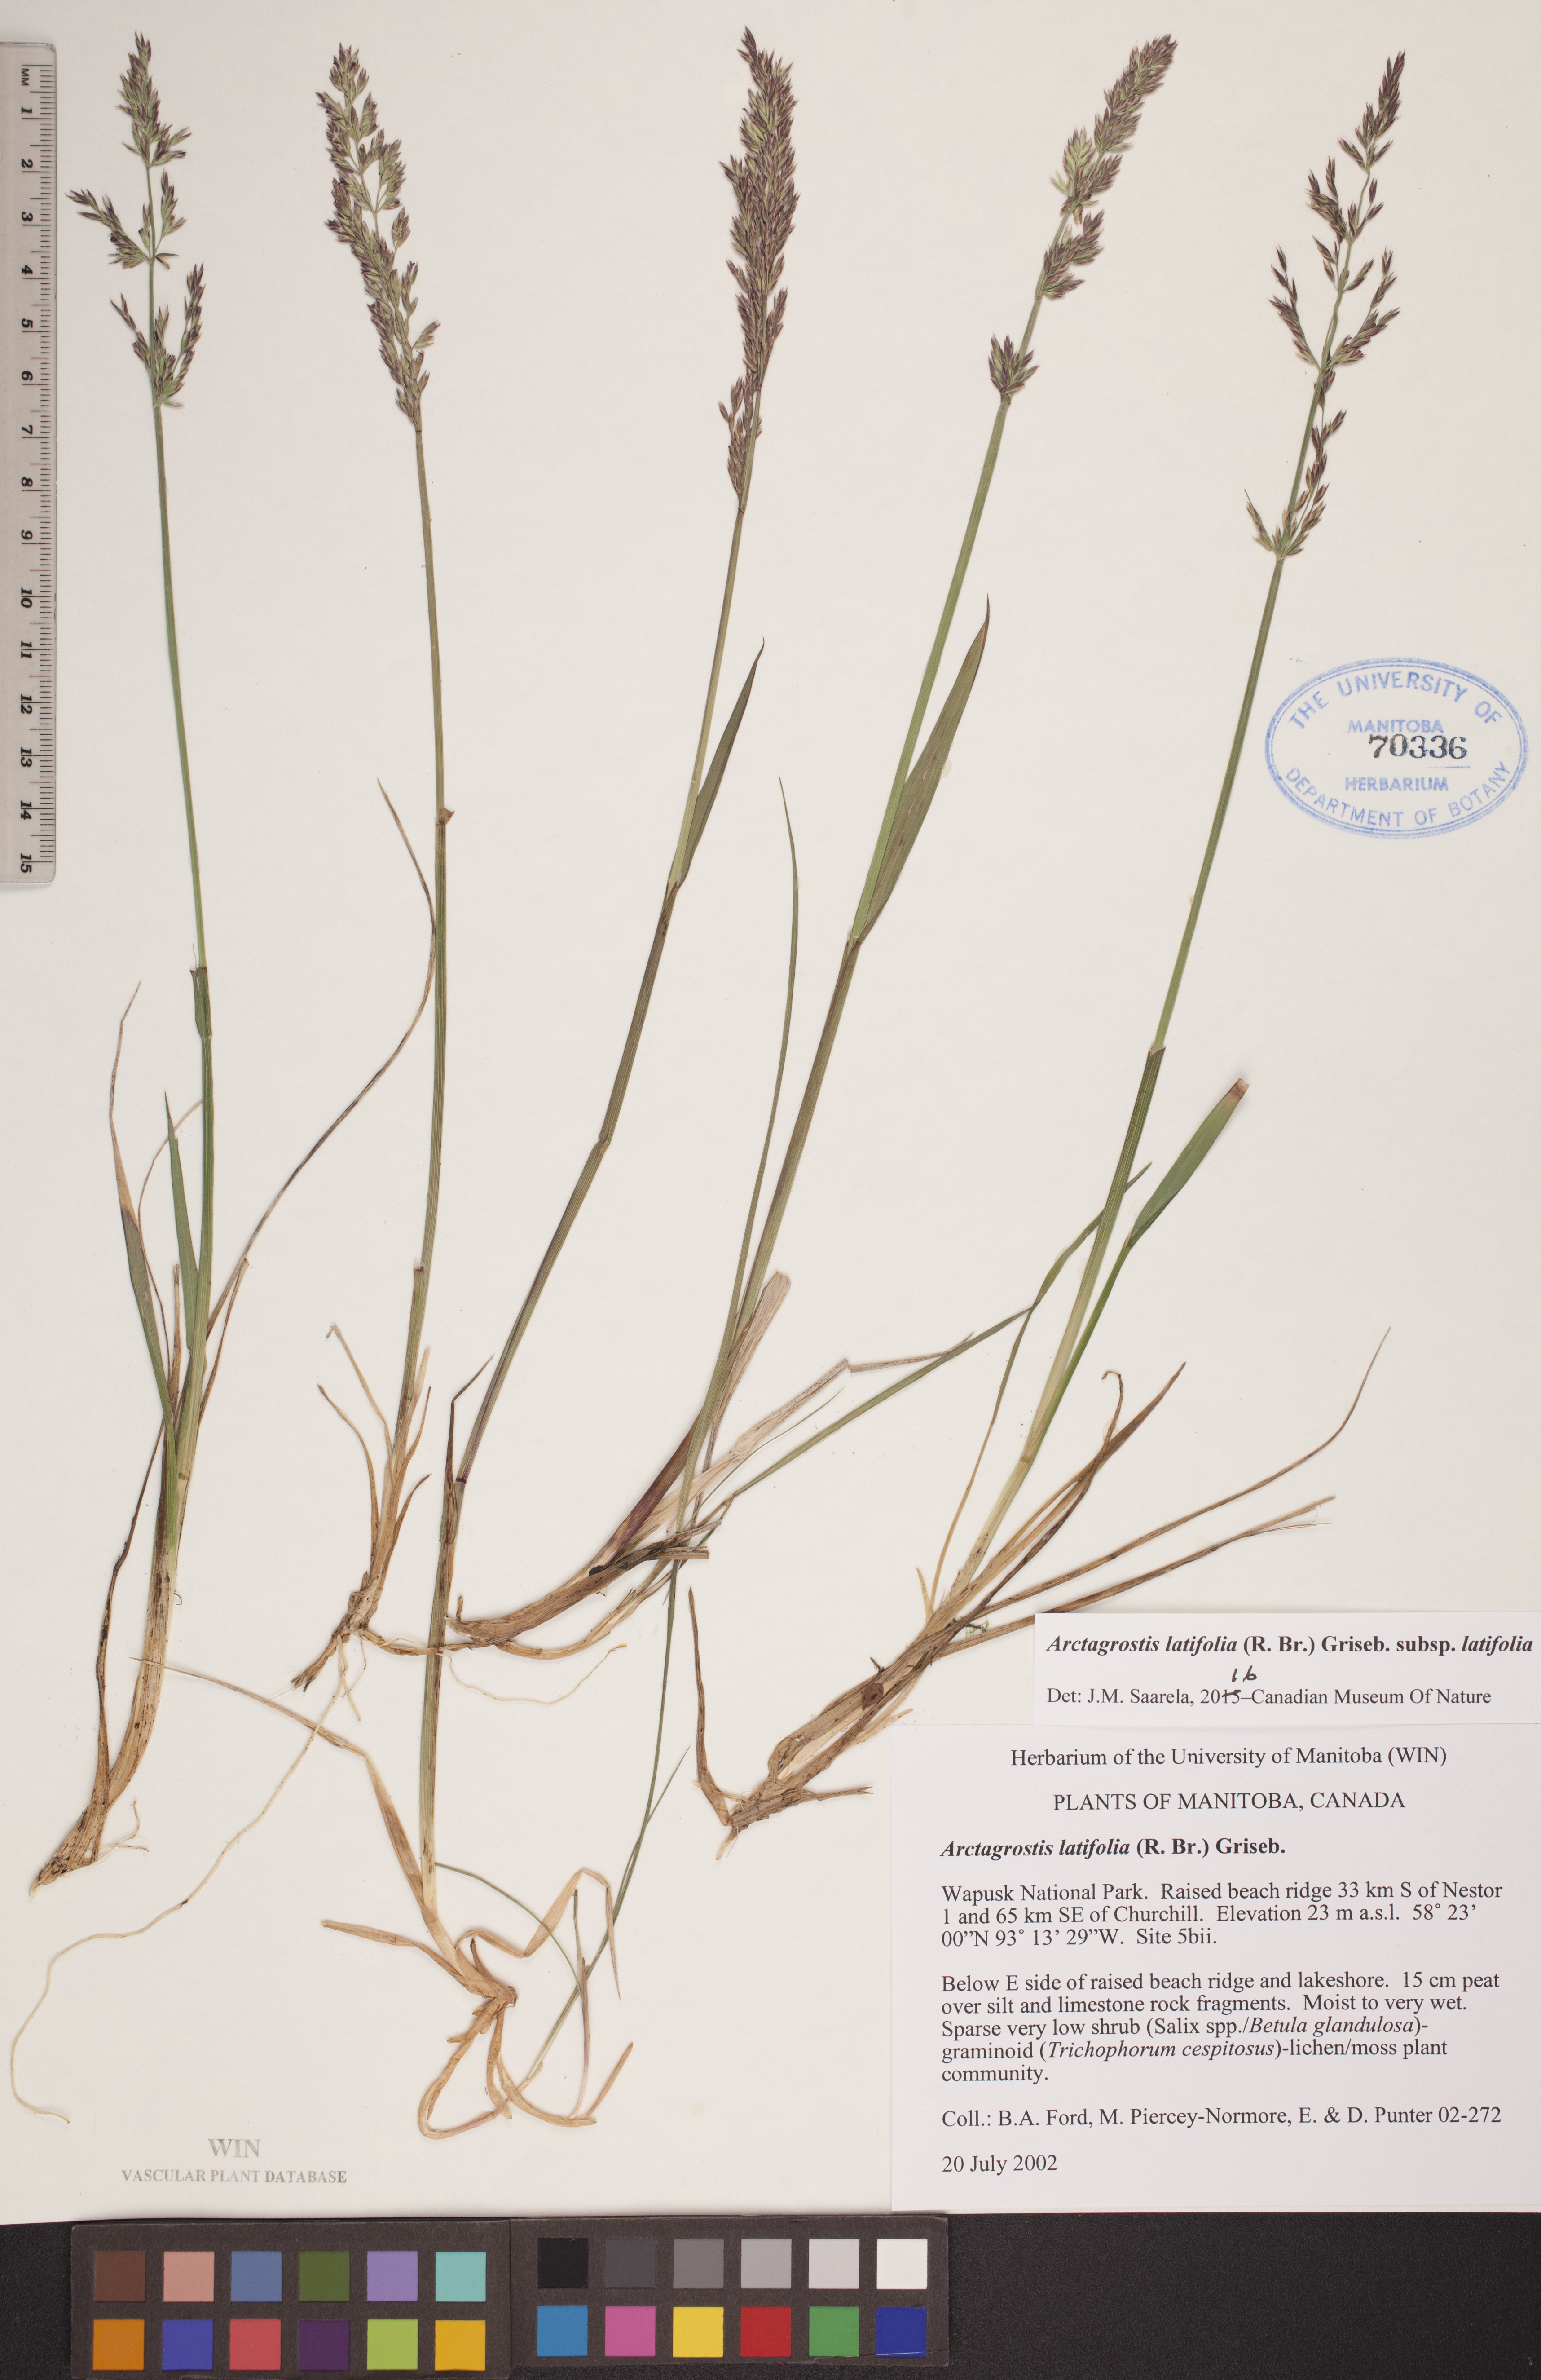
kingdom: Plantae
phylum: Tracheophyta
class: Liliopsida
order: Poales
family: Poaceae
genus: Arctagrostis
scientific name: Arctagrostis latifolia
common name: Arctic grass
